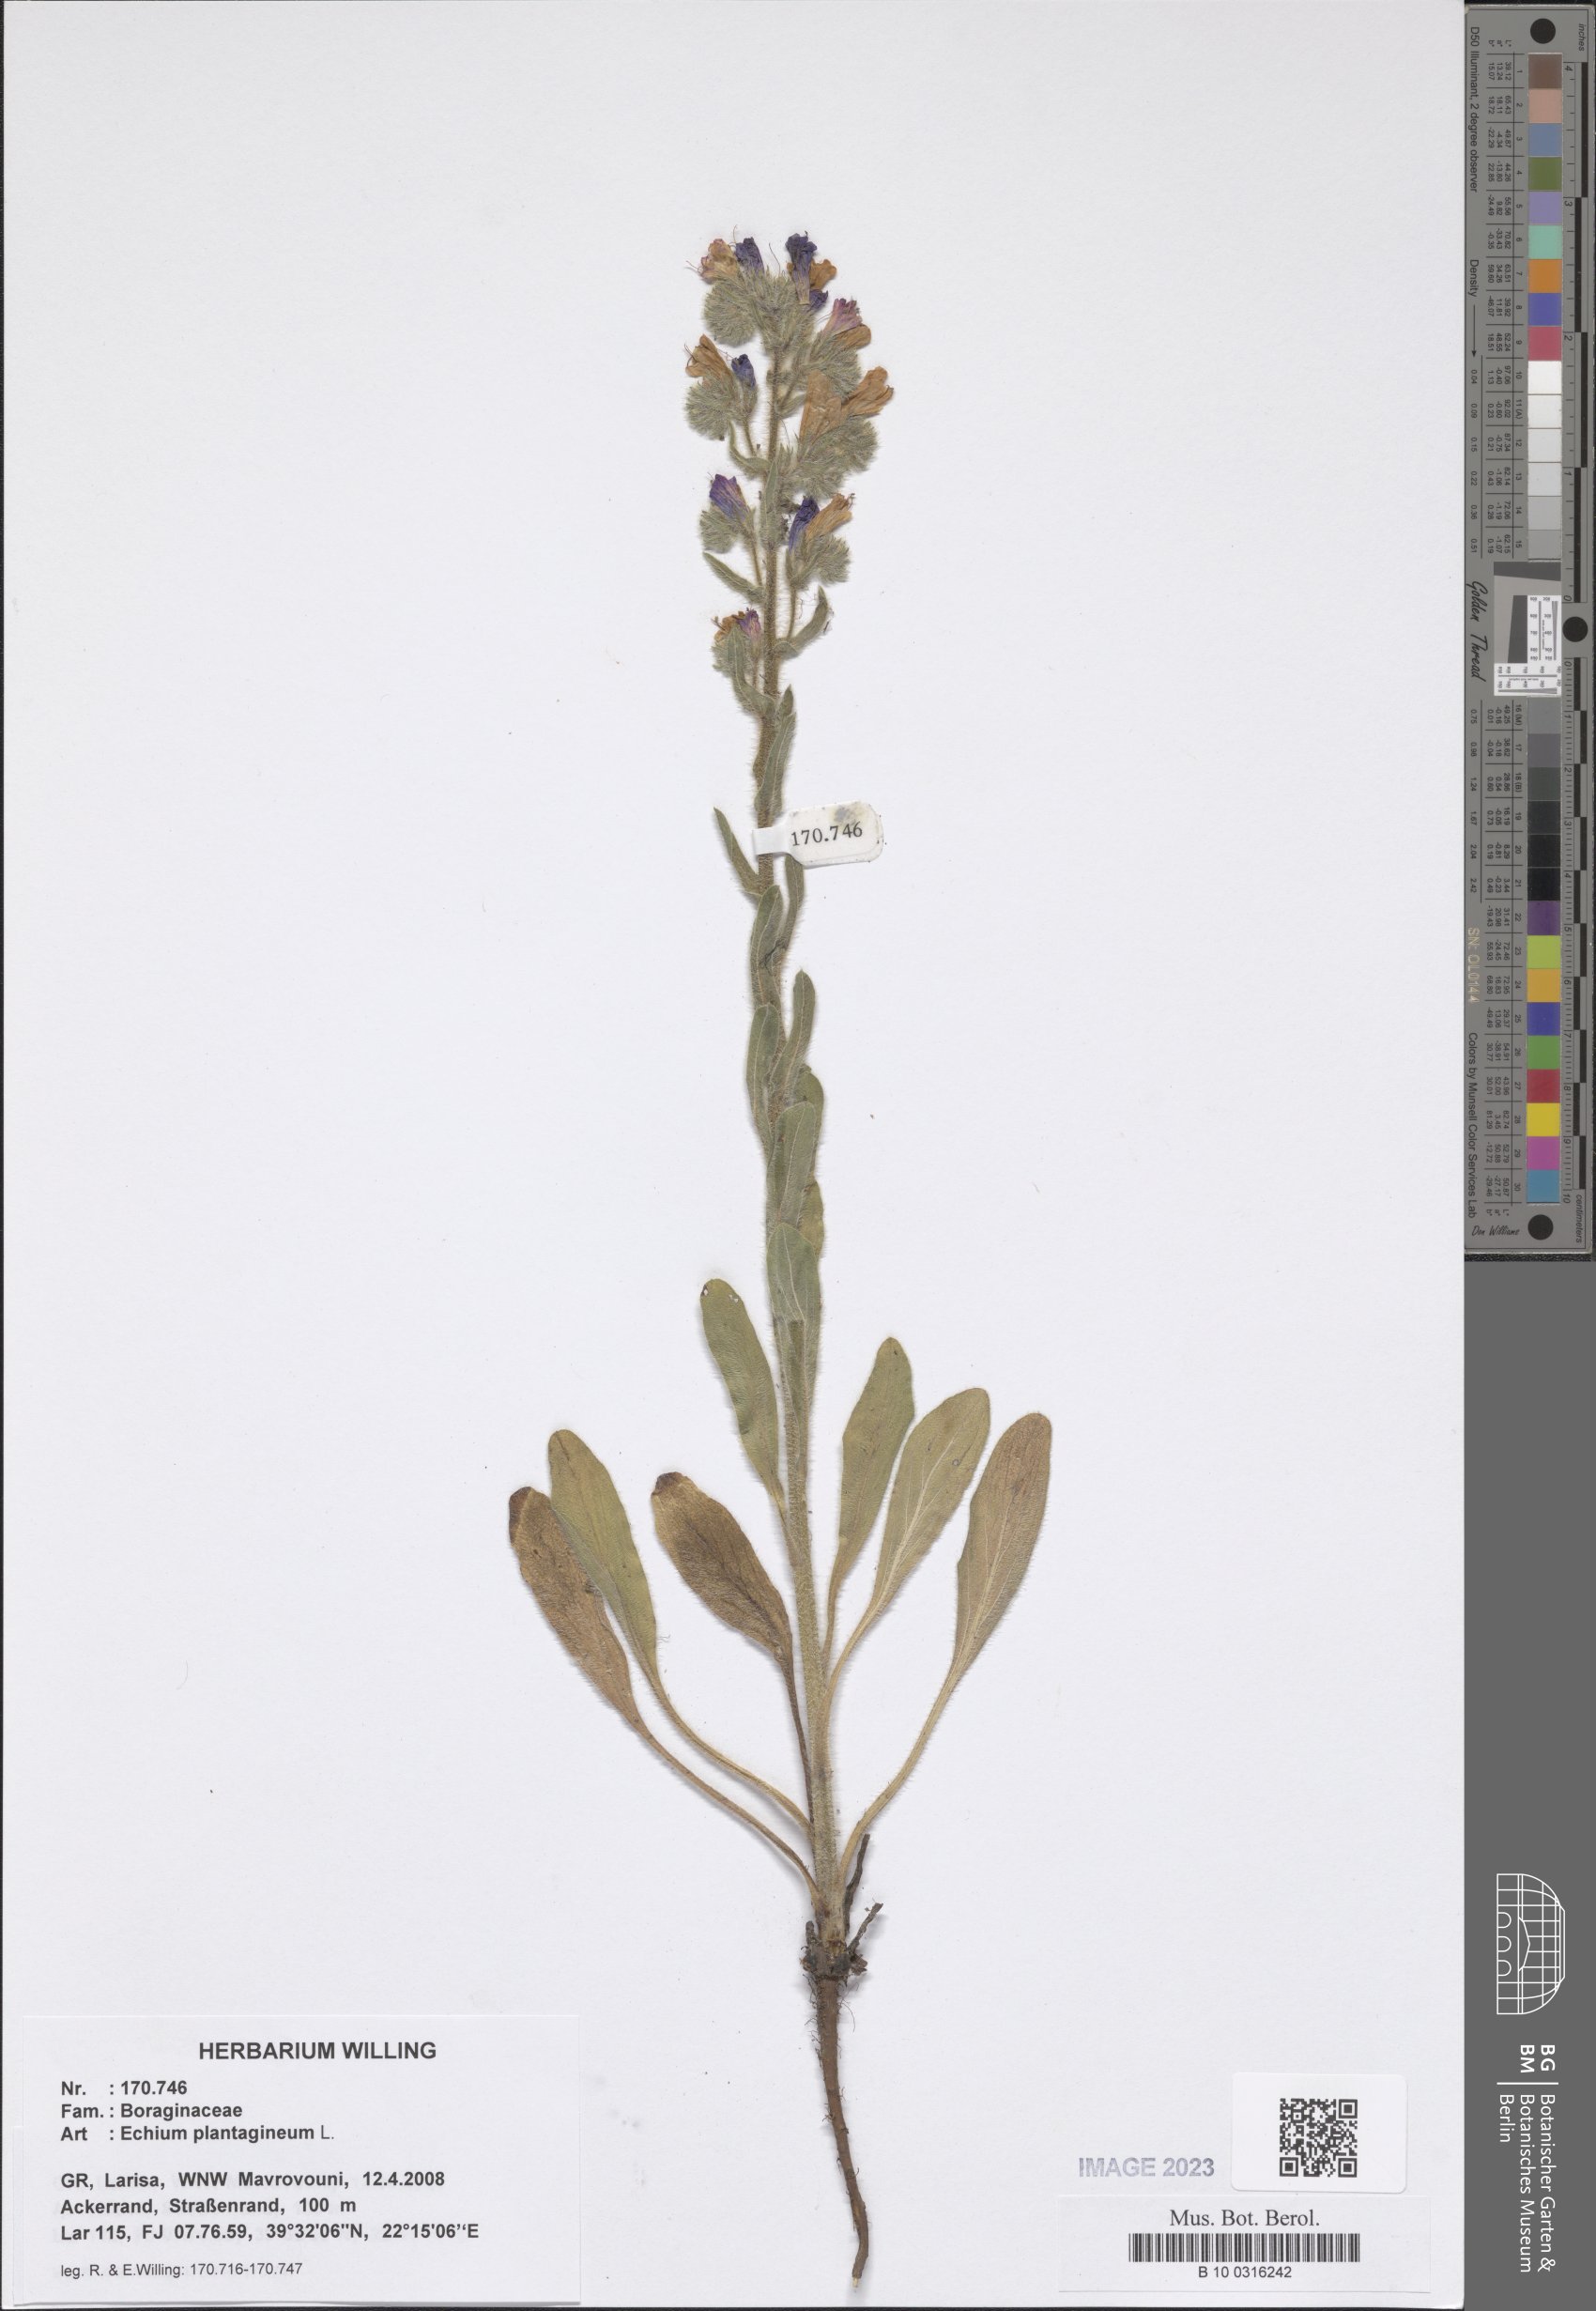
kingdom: Plantae
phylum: Tracheophyta
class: Magnoliopsida
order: Boraginales
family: Boraginaceae
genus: Echium
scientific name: Echium plantagineum
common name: Purple viper's-bugloss
